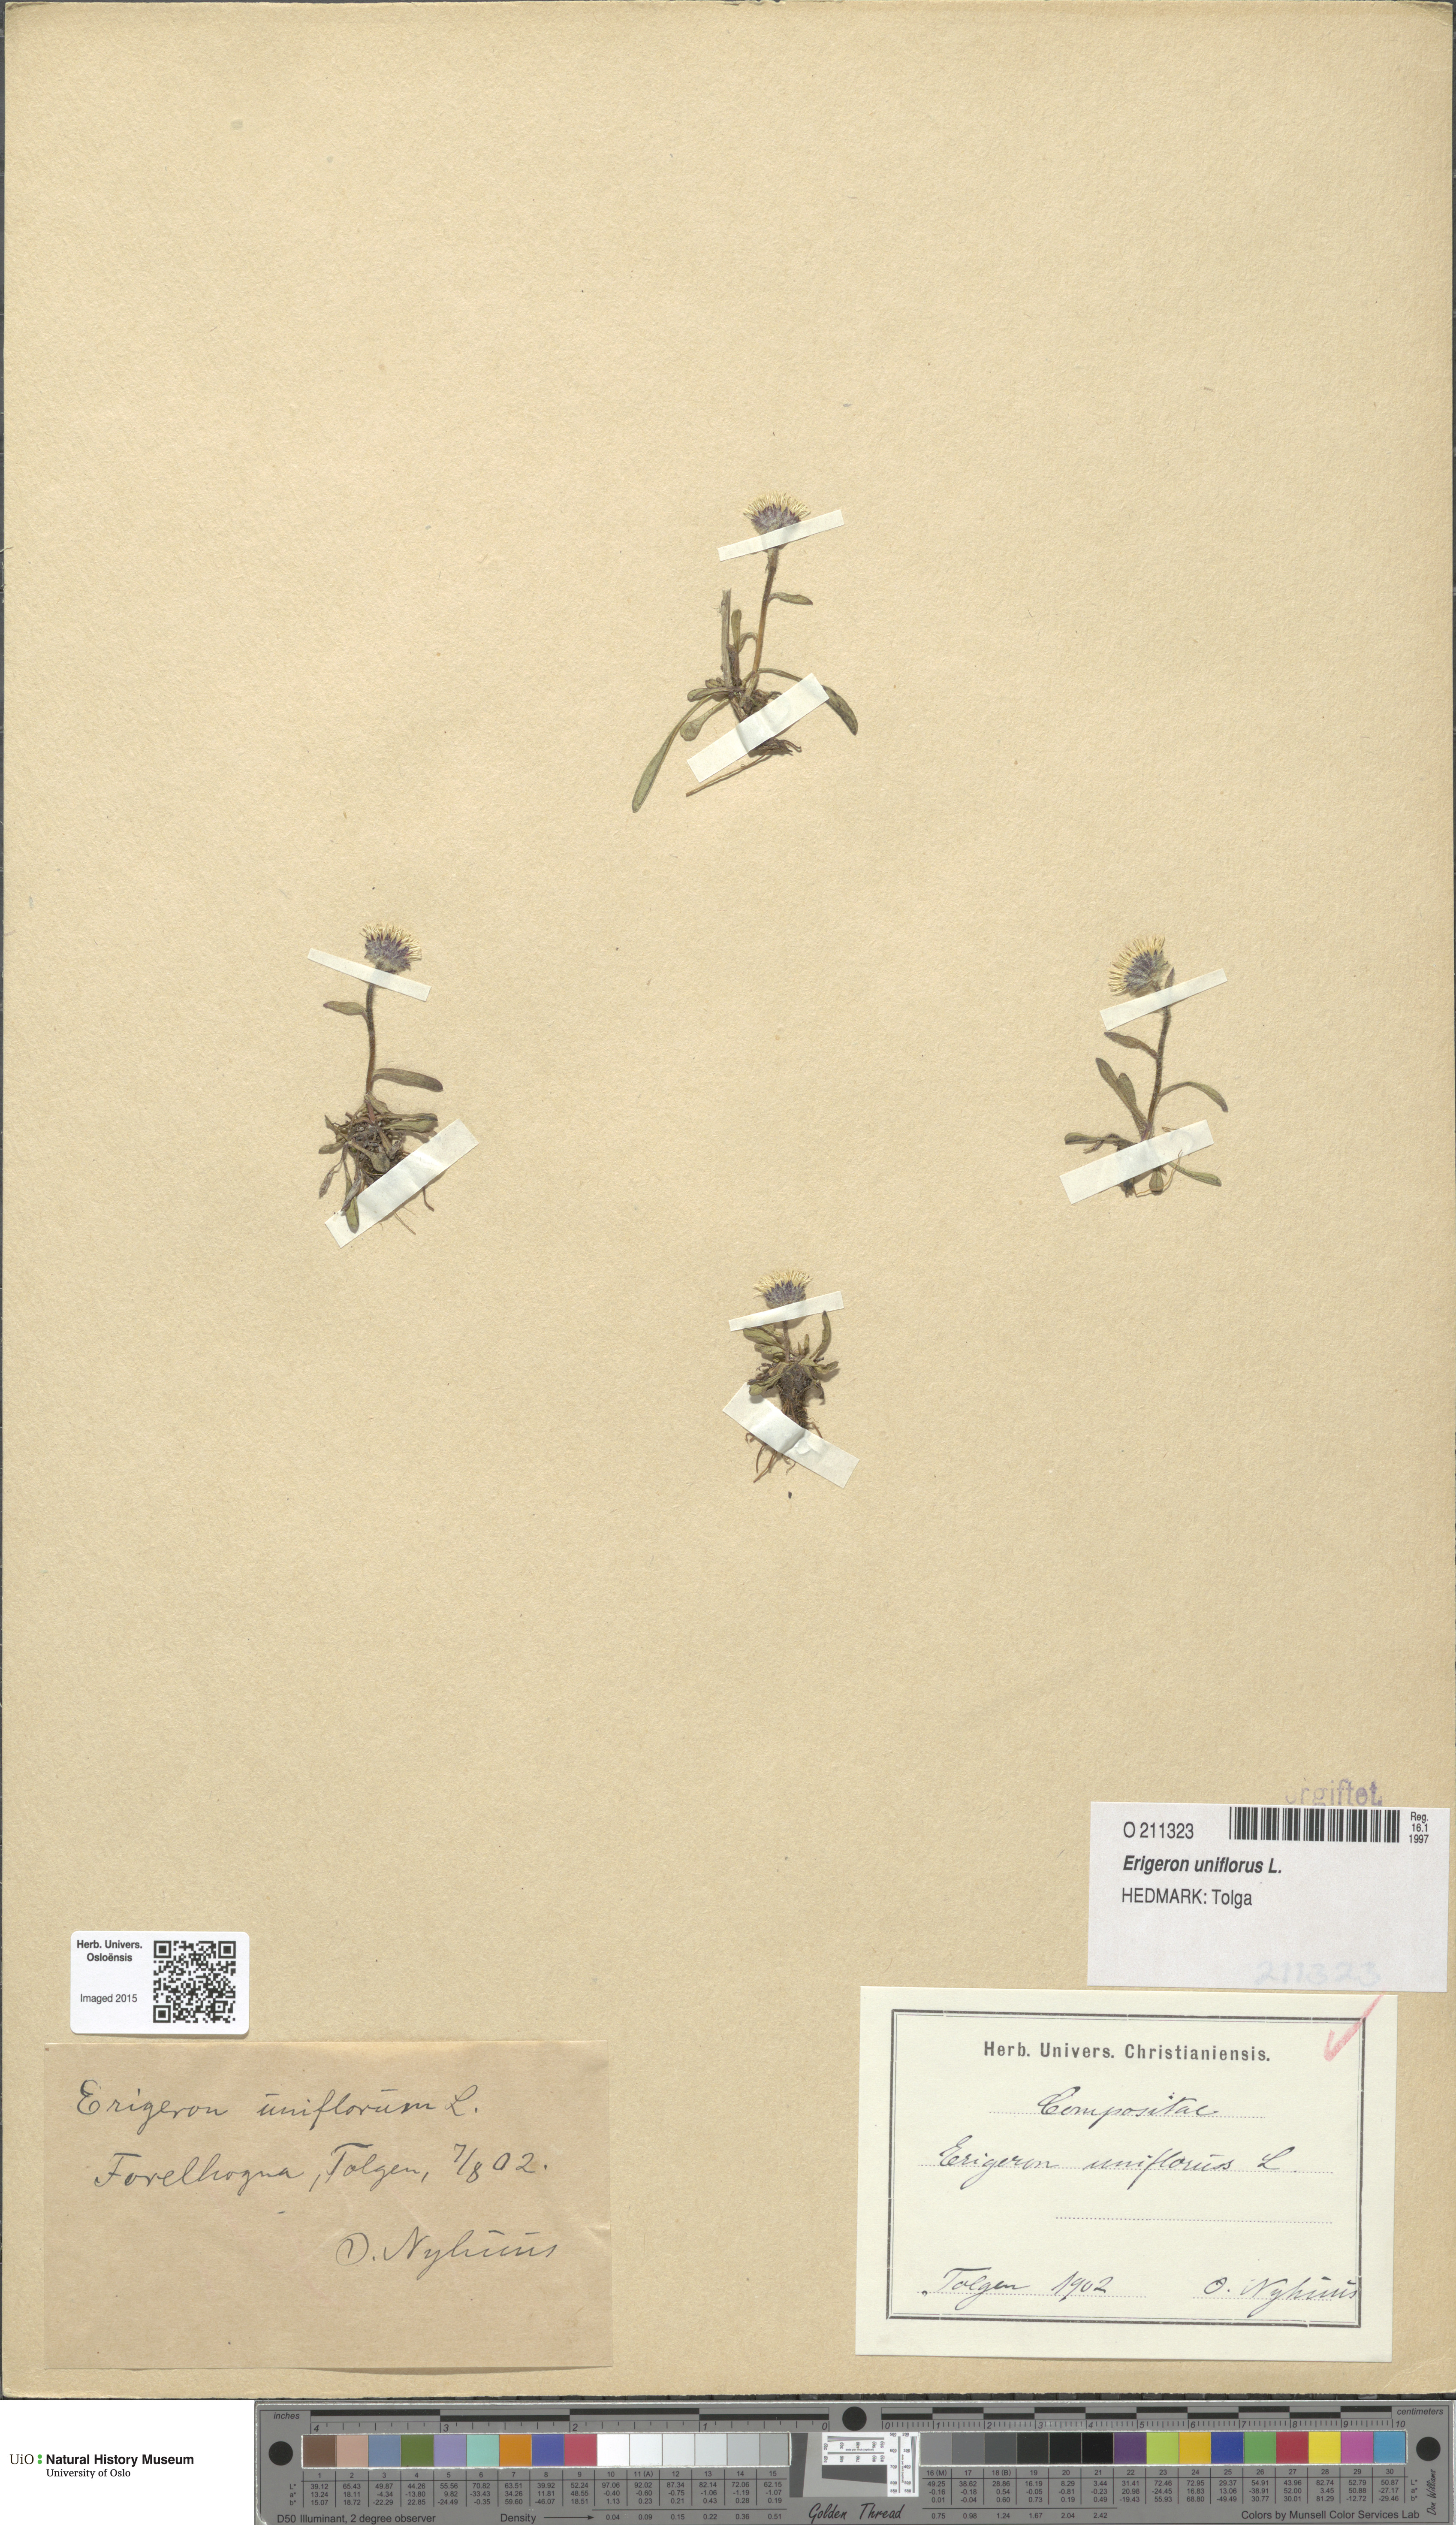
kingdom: Plantae
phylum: Tracheophyta
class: Magnoliopsida
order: Asterales
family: Asteraceae
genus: Erigeron
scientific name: Erigeron uniflorus
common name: Northern daisy
